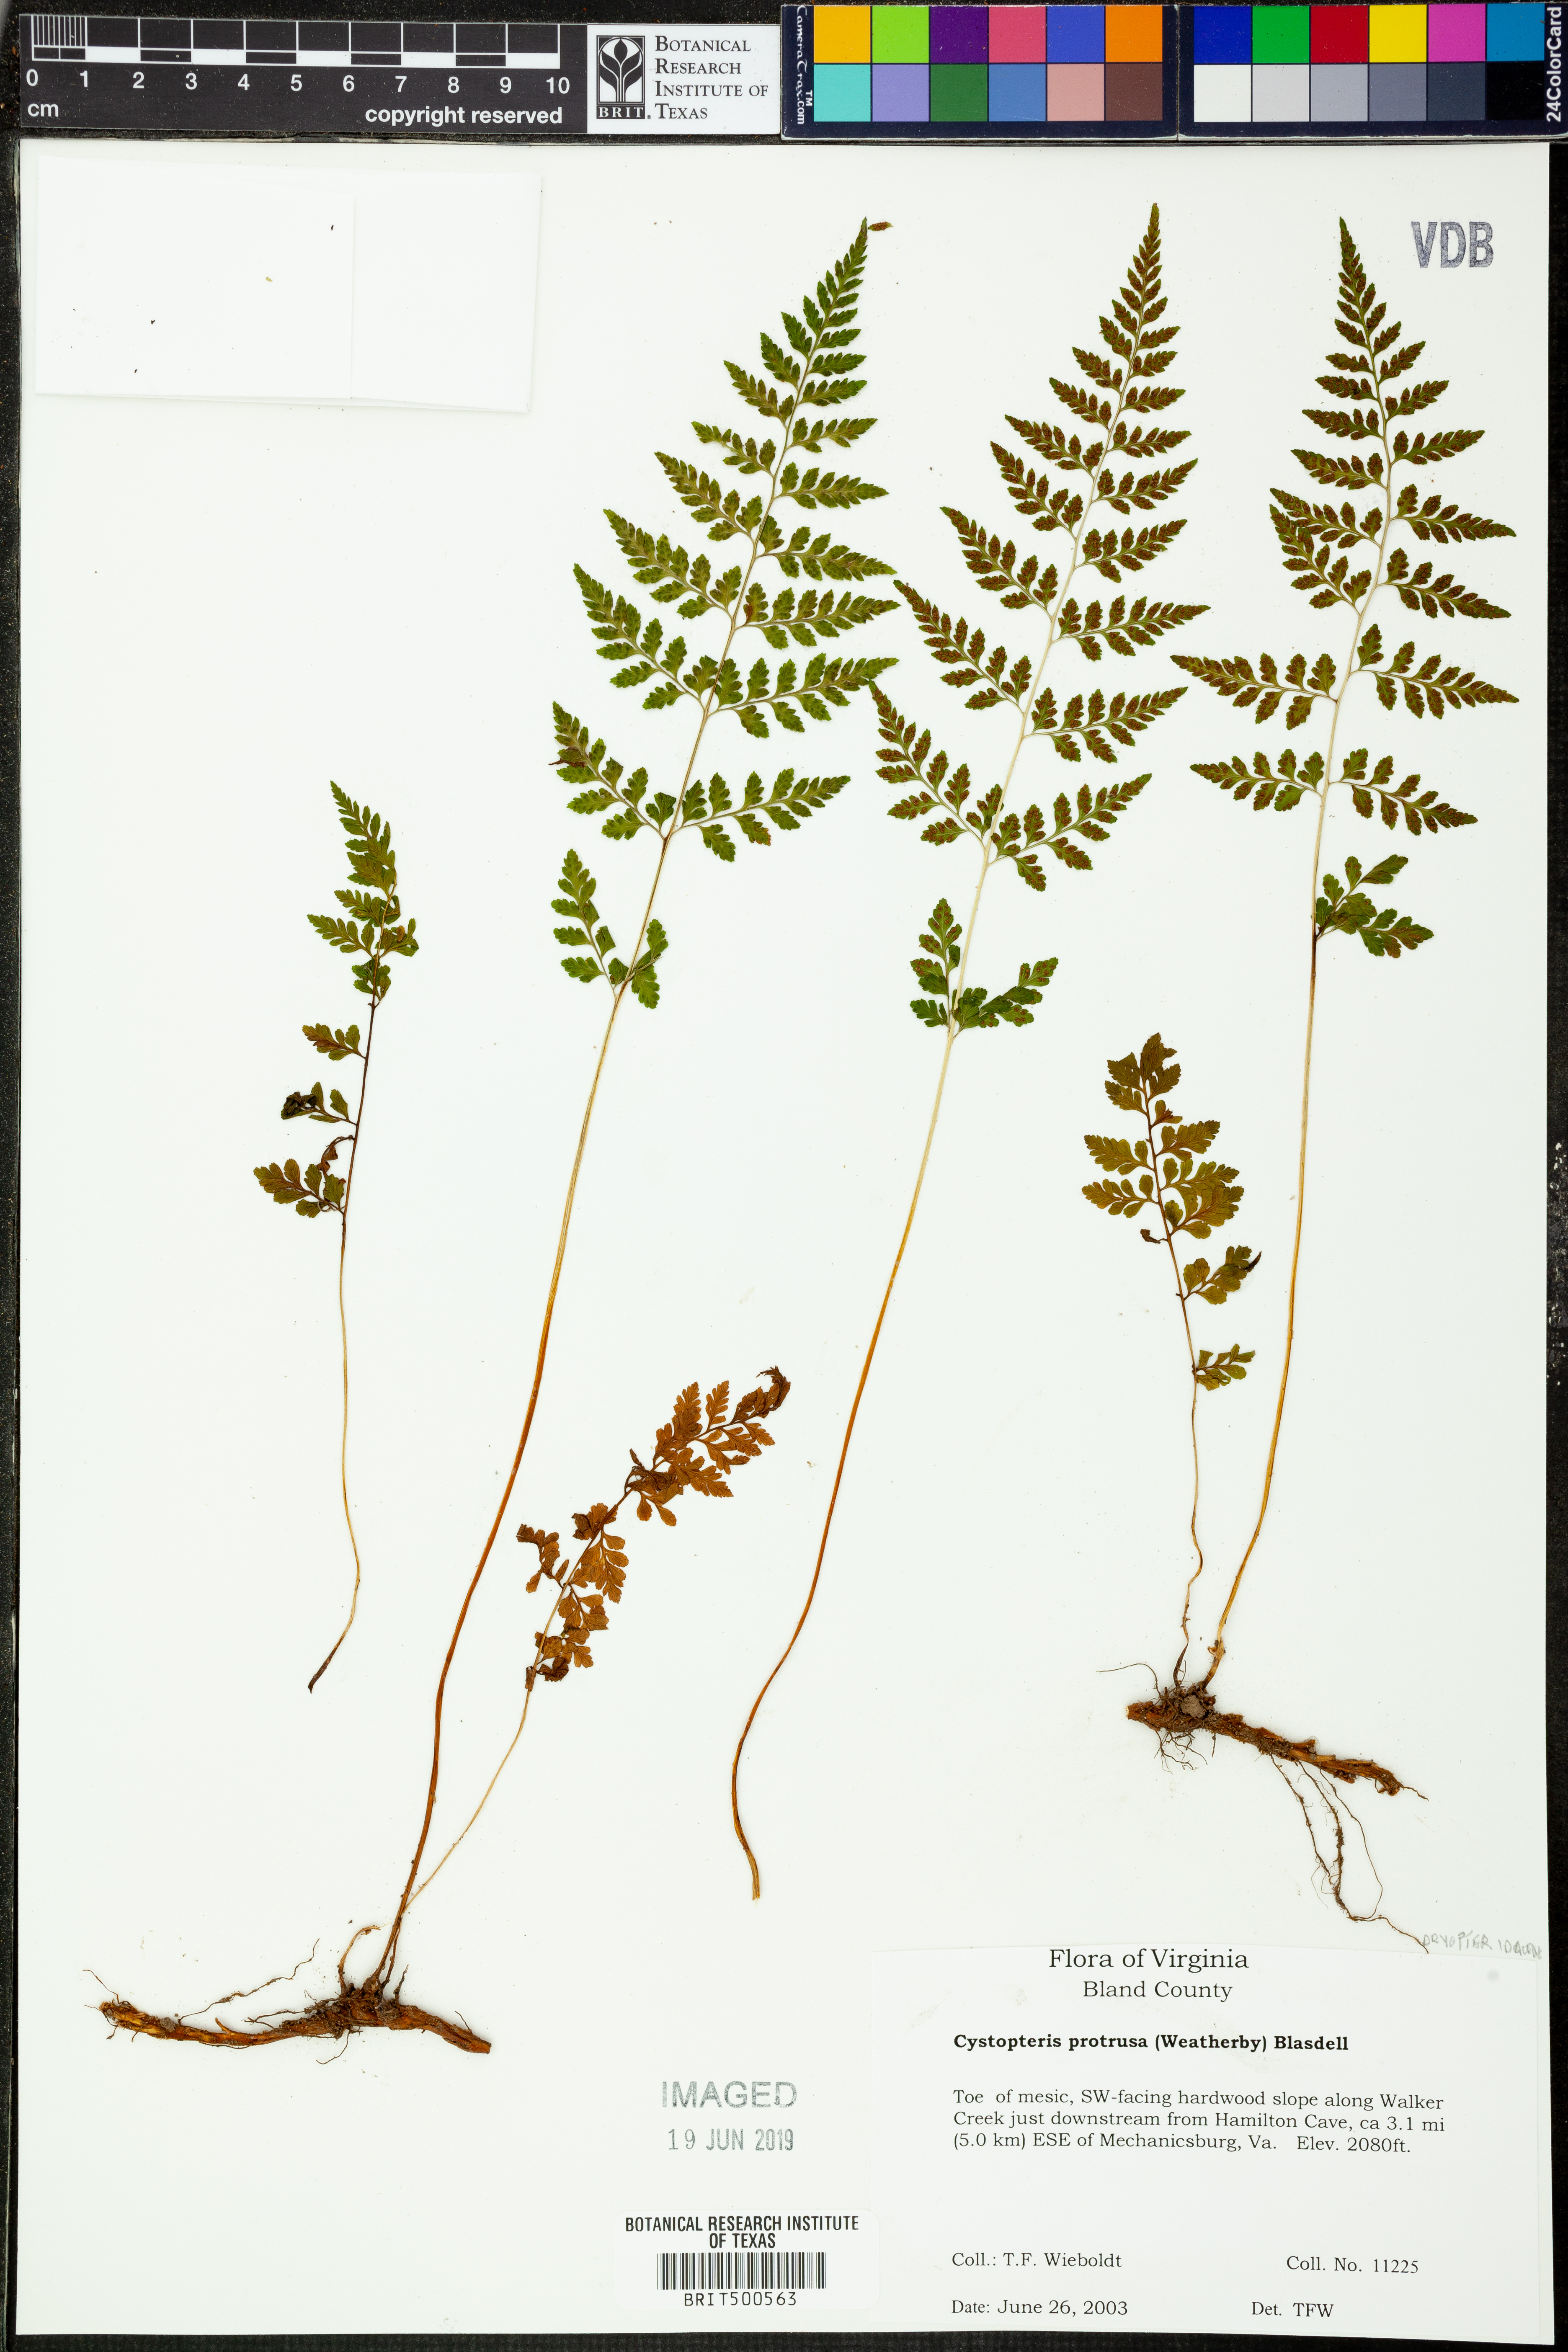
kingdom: Plantae
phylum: Tracheophyta
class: Polypodiopsida
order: Polypodiales
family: Cystopteridaceae
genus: Cystopteris
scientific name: Cystopteris protrusa
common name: Lowland brittle fern
